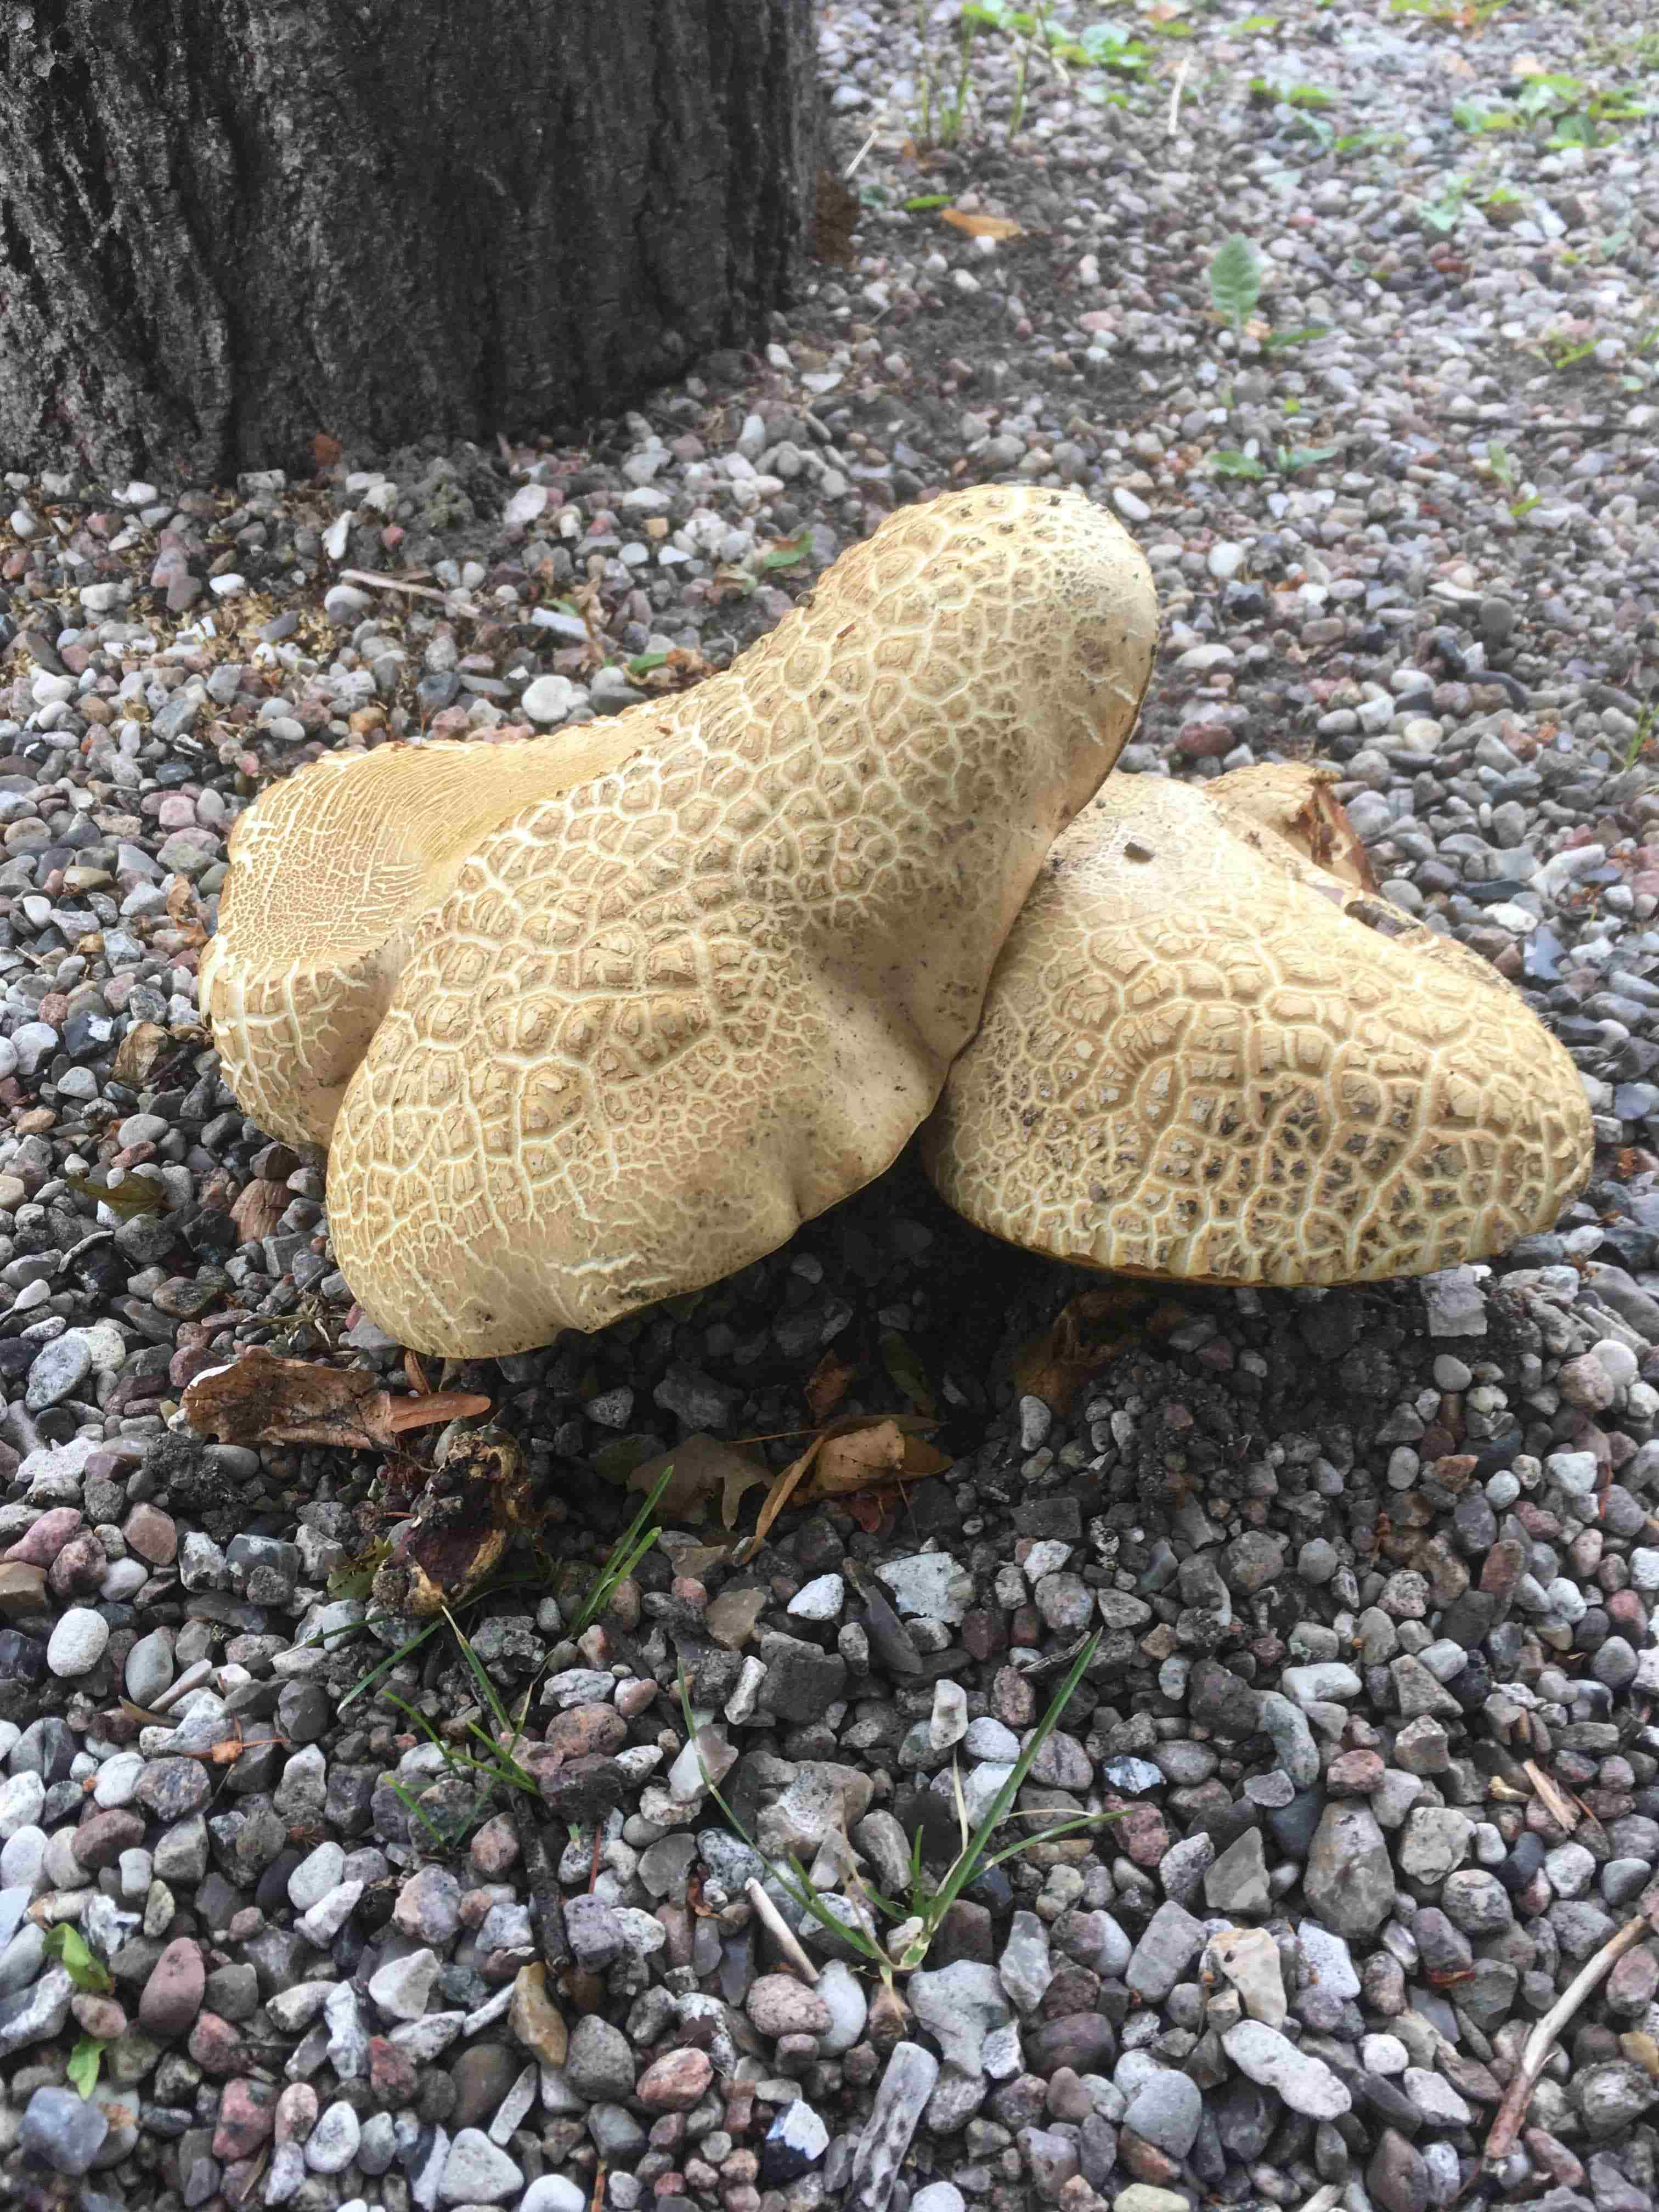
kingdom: Fungi
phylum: Basidiomycota
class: Agaricomycetes
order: Boletales
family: Boletaceae
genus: Caloboletus
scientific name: Caloboletus radicans
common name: rod-rørhat
